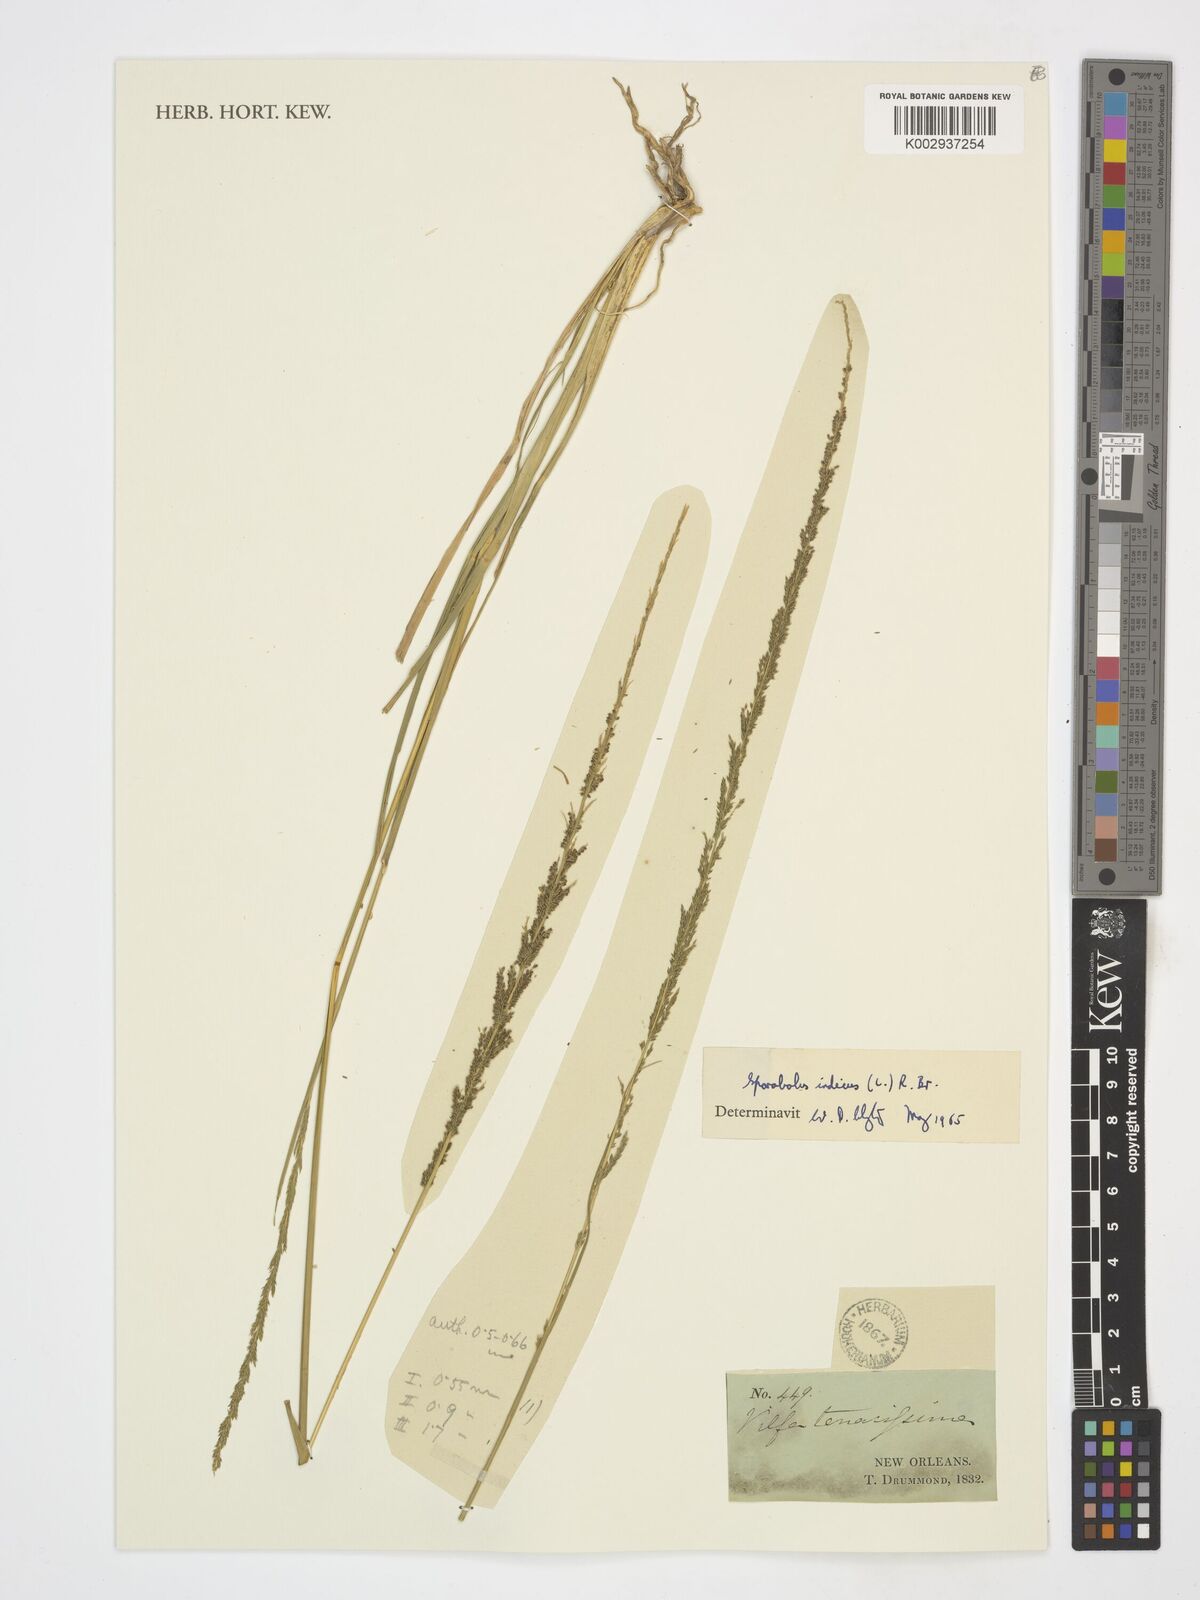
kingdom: Plantae
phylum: Tracheophyta
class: Liliopsida
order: Poales
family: Poaceae
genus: Sporobolus
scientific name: Sporobolus indicus
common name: Smut grass
